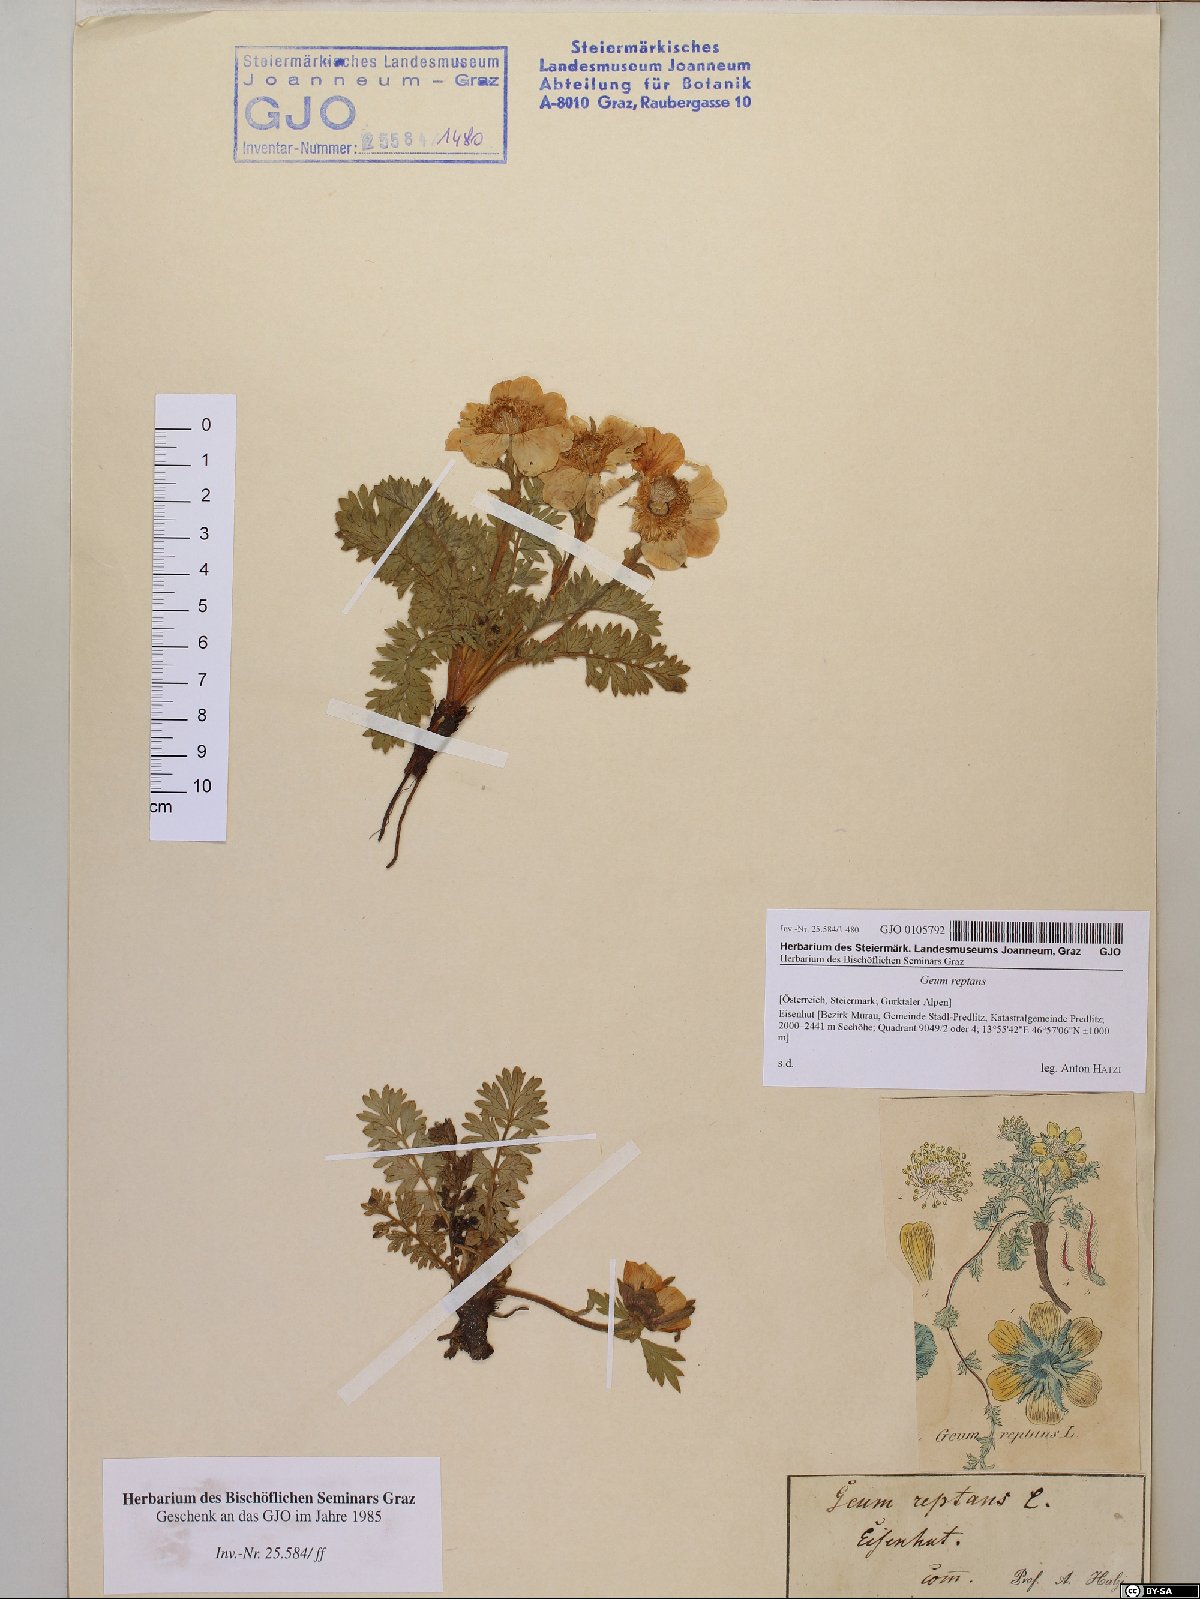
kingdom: Plantae
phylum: Tracheophyta
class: Magnoliopsida
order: Rosales
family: Rosaceae
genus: Geum
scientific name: Geum reptans
